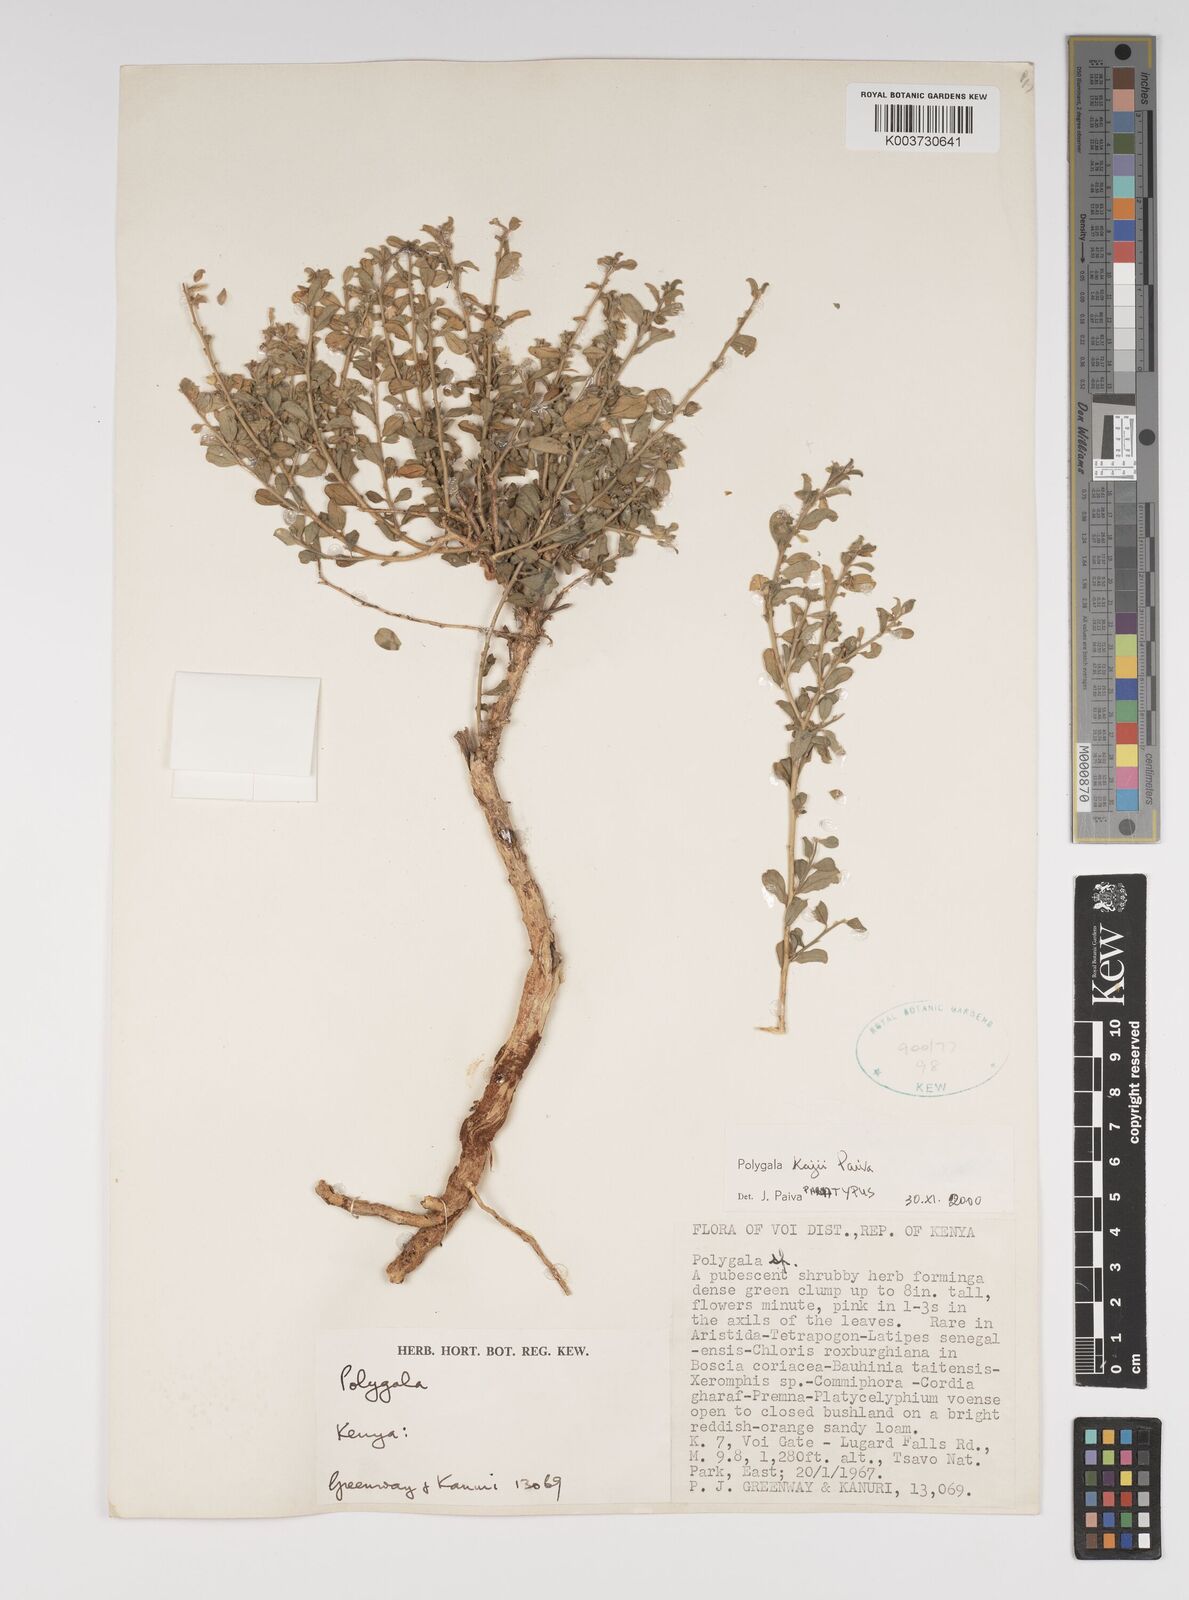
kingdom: Plantae
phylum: Tracheophyta
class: Magnoliopsida
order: Fabales
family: Polygalaceae
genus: Polygala
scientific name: Polygala kajii
